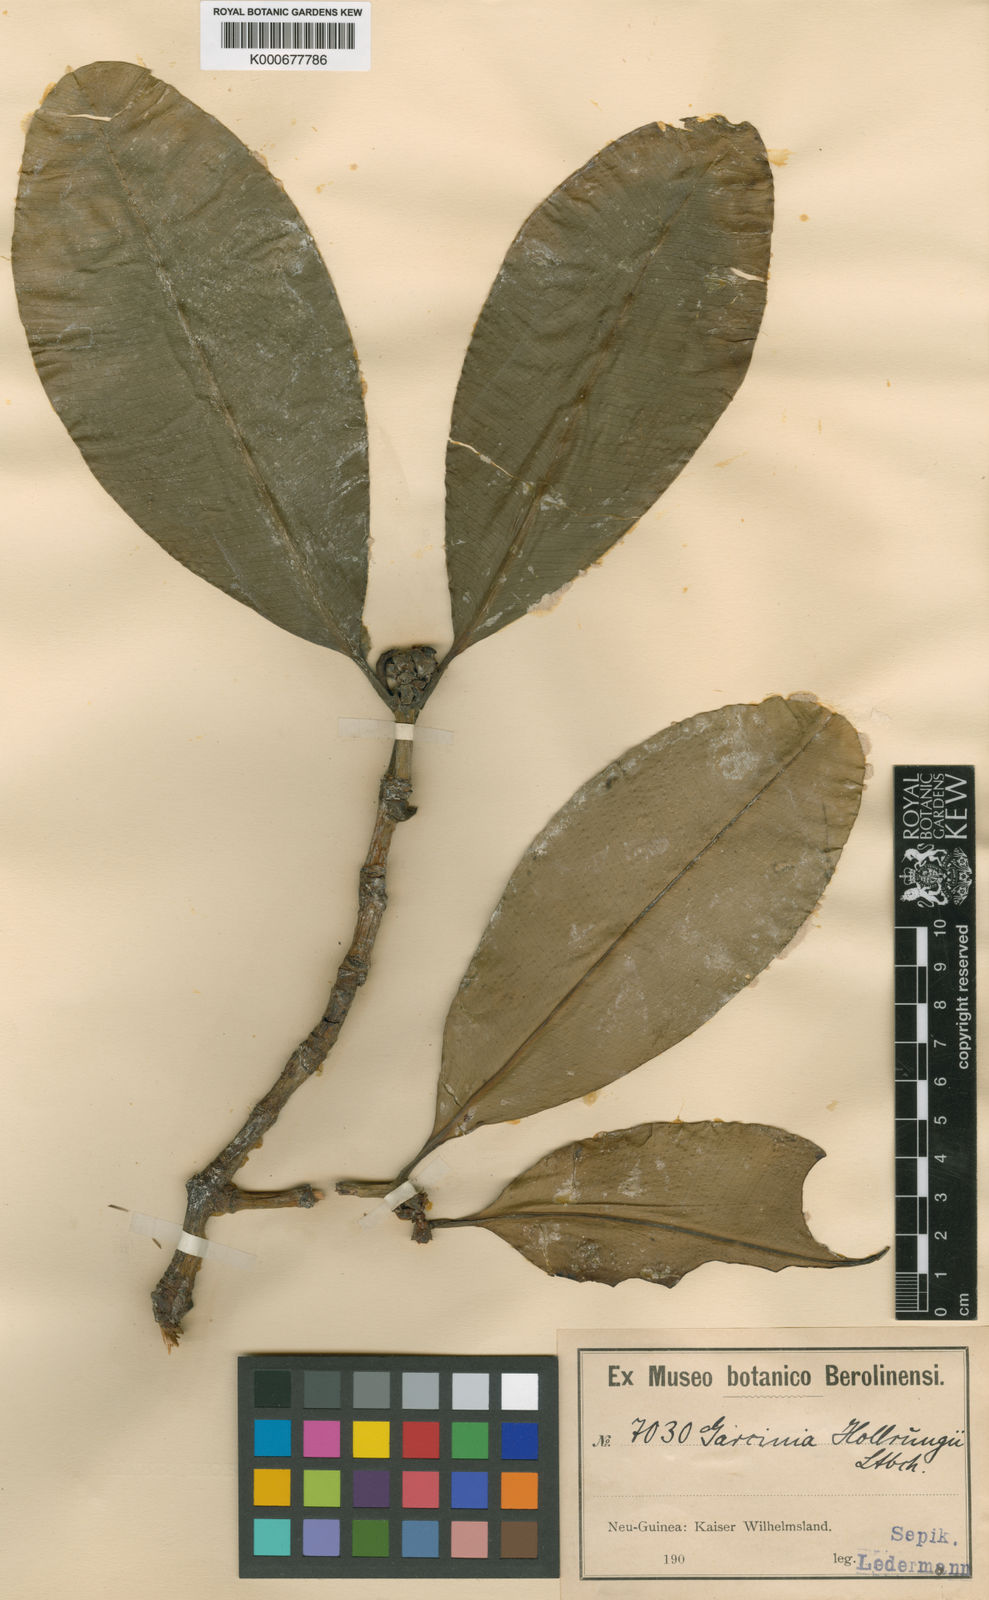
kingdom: Plantae
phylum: Tracheophyta
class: Magnoliopsida
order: Malpighiales
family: Clusiaceae
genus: Garcinia
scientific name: Garcinia hollrungii
